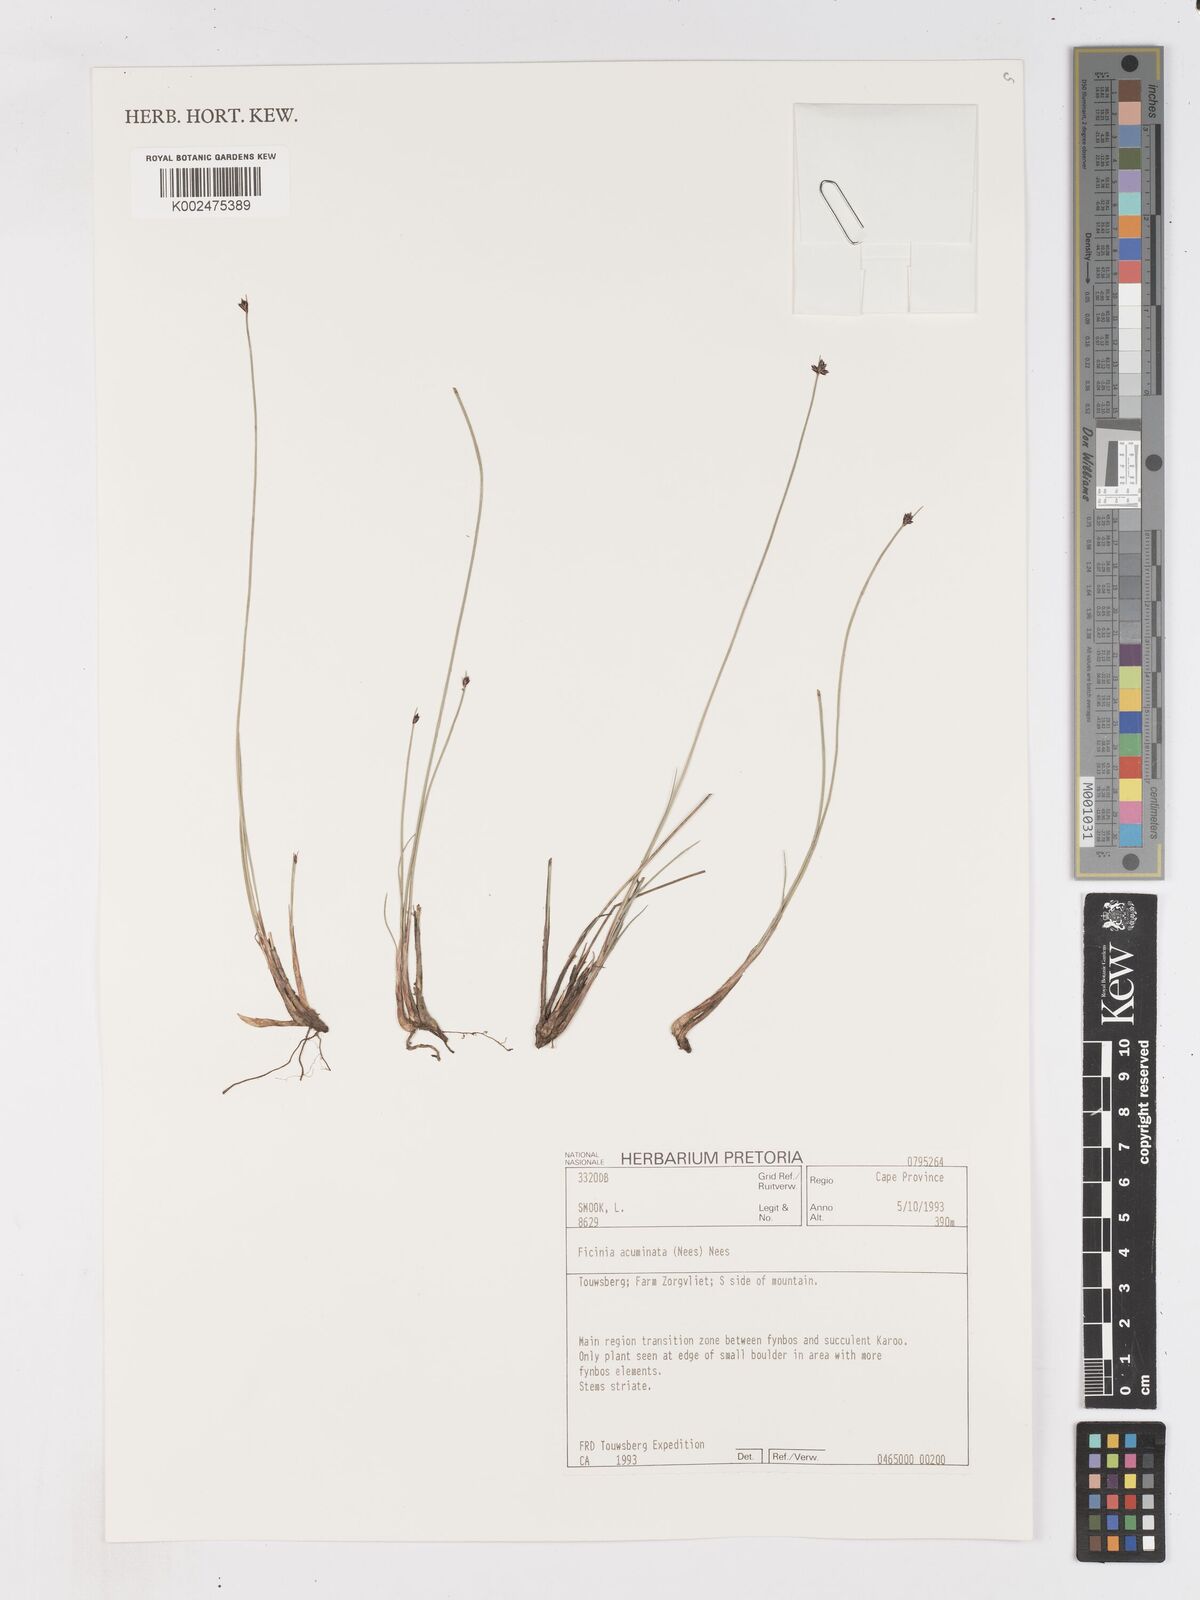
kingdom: Plantae
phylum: Tracheophyta
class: Liliopsida
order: Poales
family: Cyperaceae
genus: Ficinia
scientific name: Ficinia acuminata
